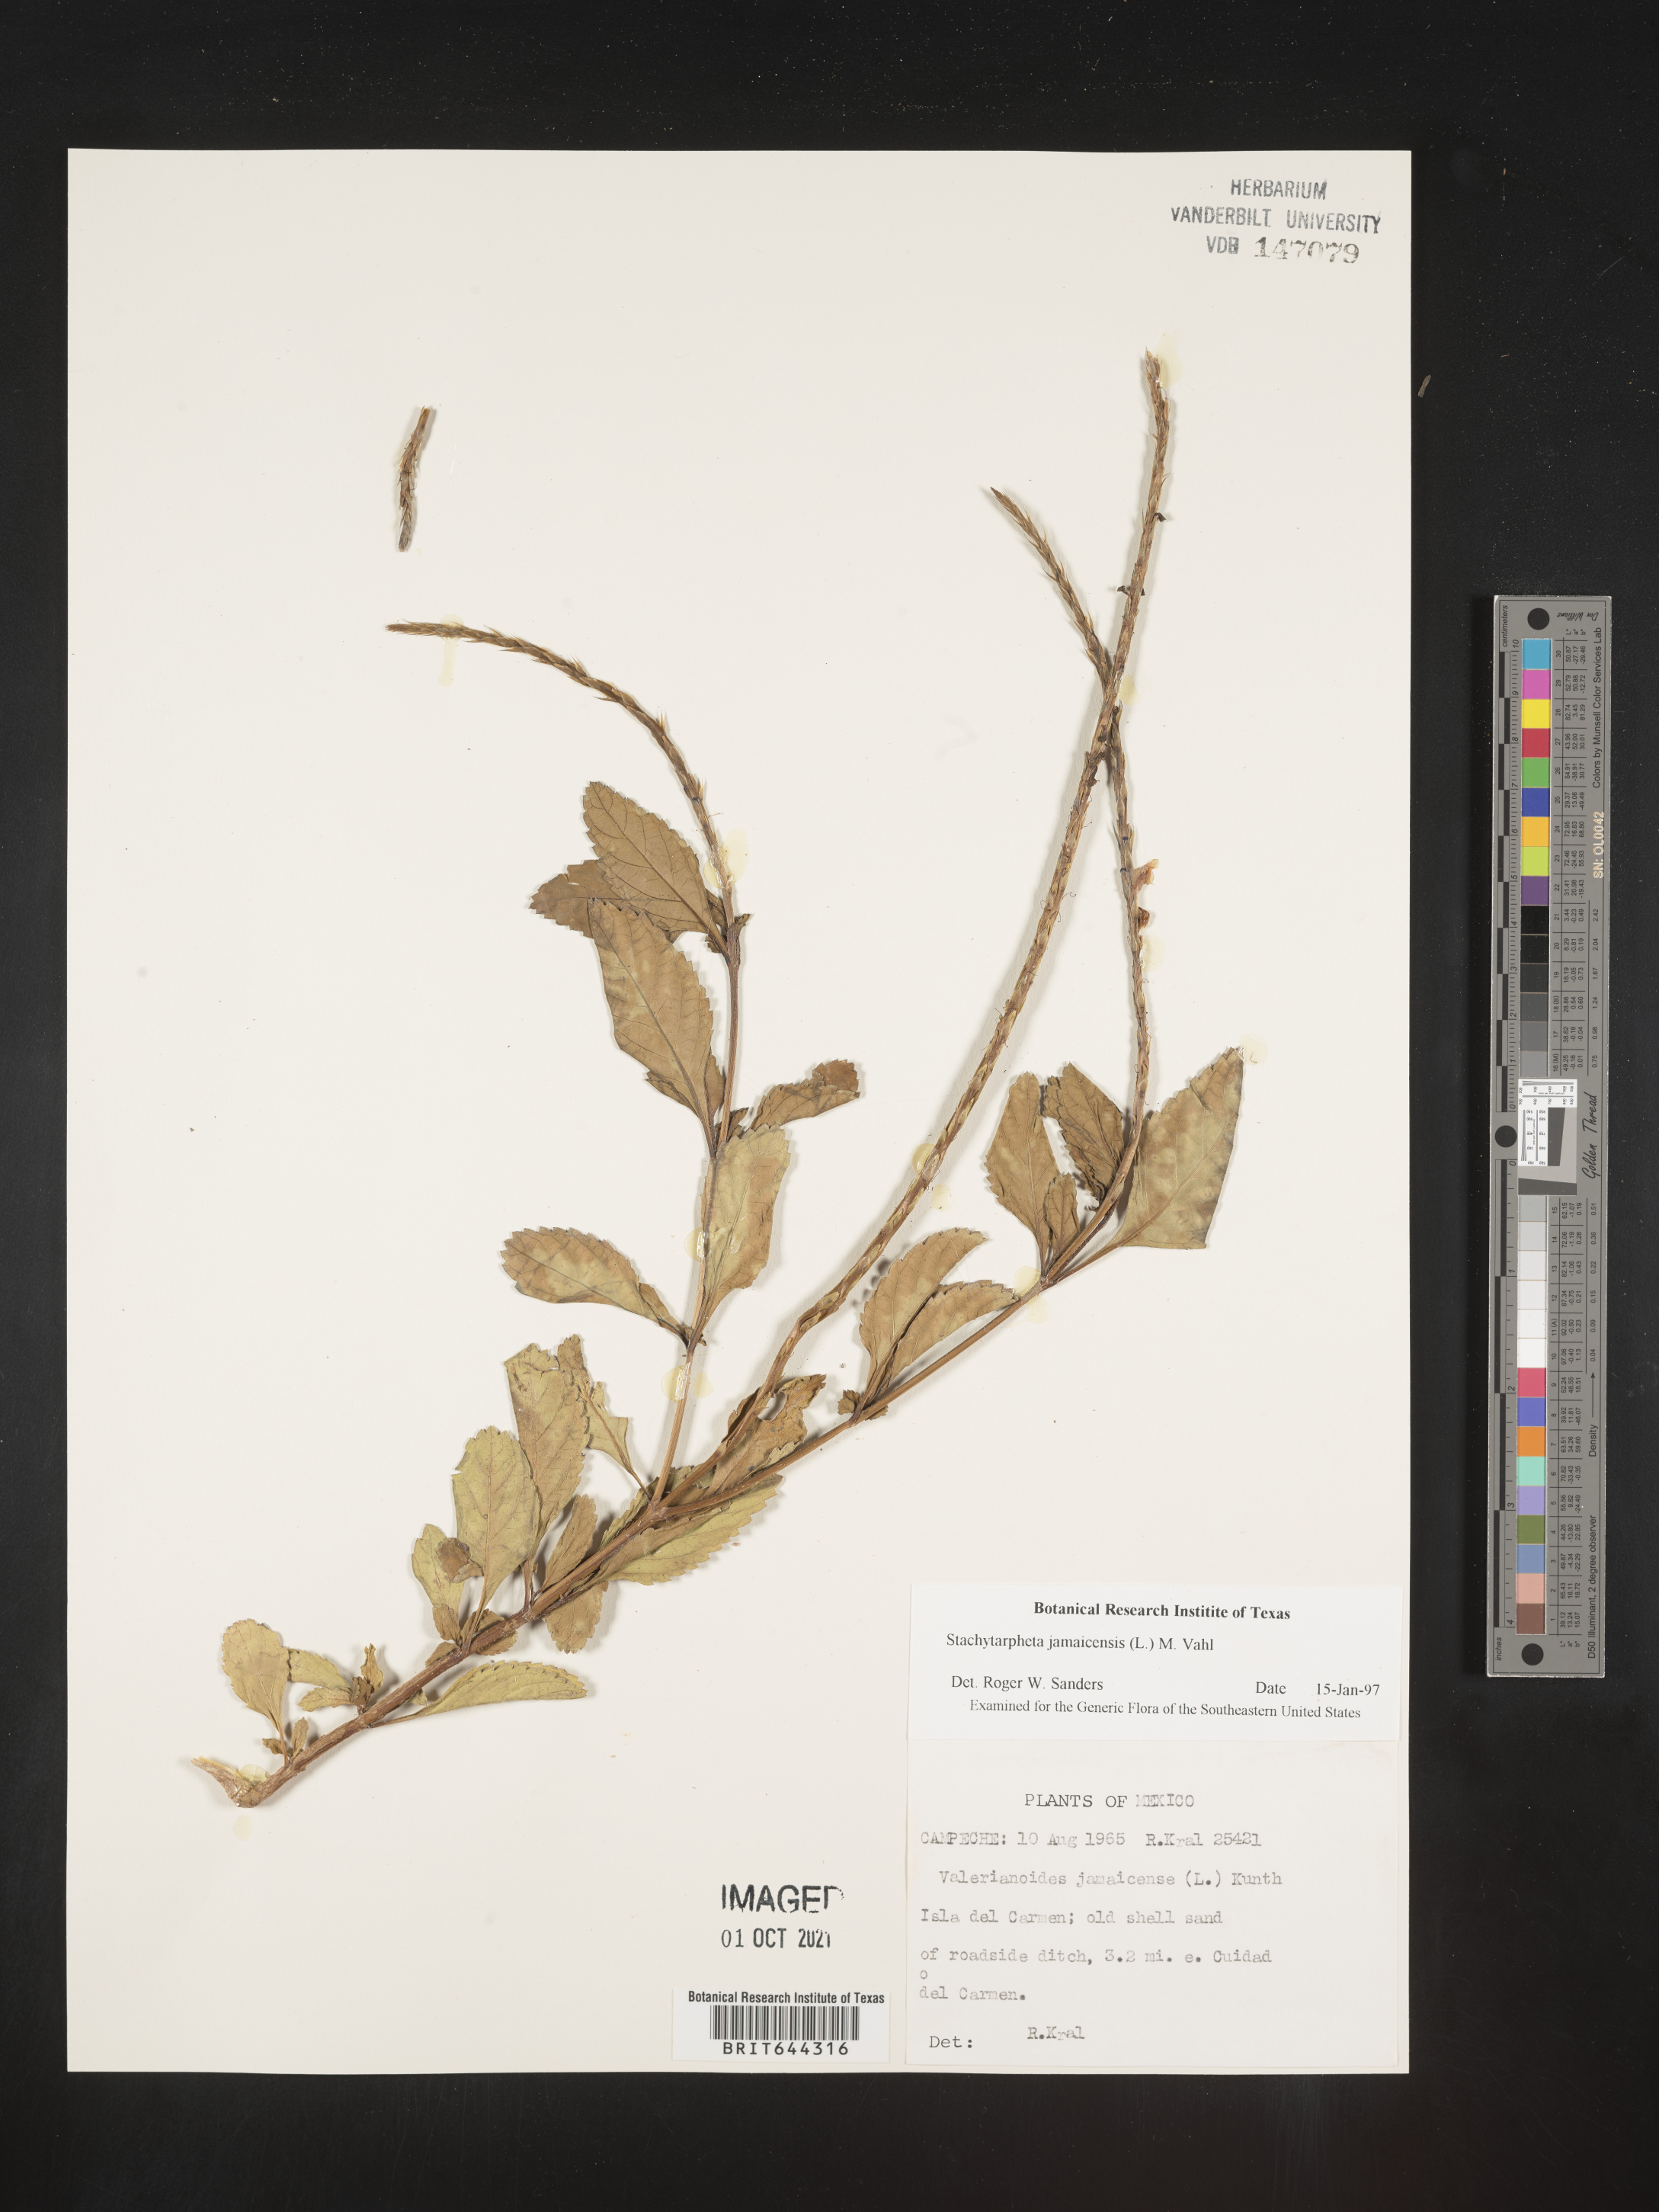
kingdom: Plantae
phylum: Tracheophyta
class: Magnoliopsida
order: Lamiales
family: Verbenaceae
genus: Stachytarpheta
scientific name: Stachytarpheta
